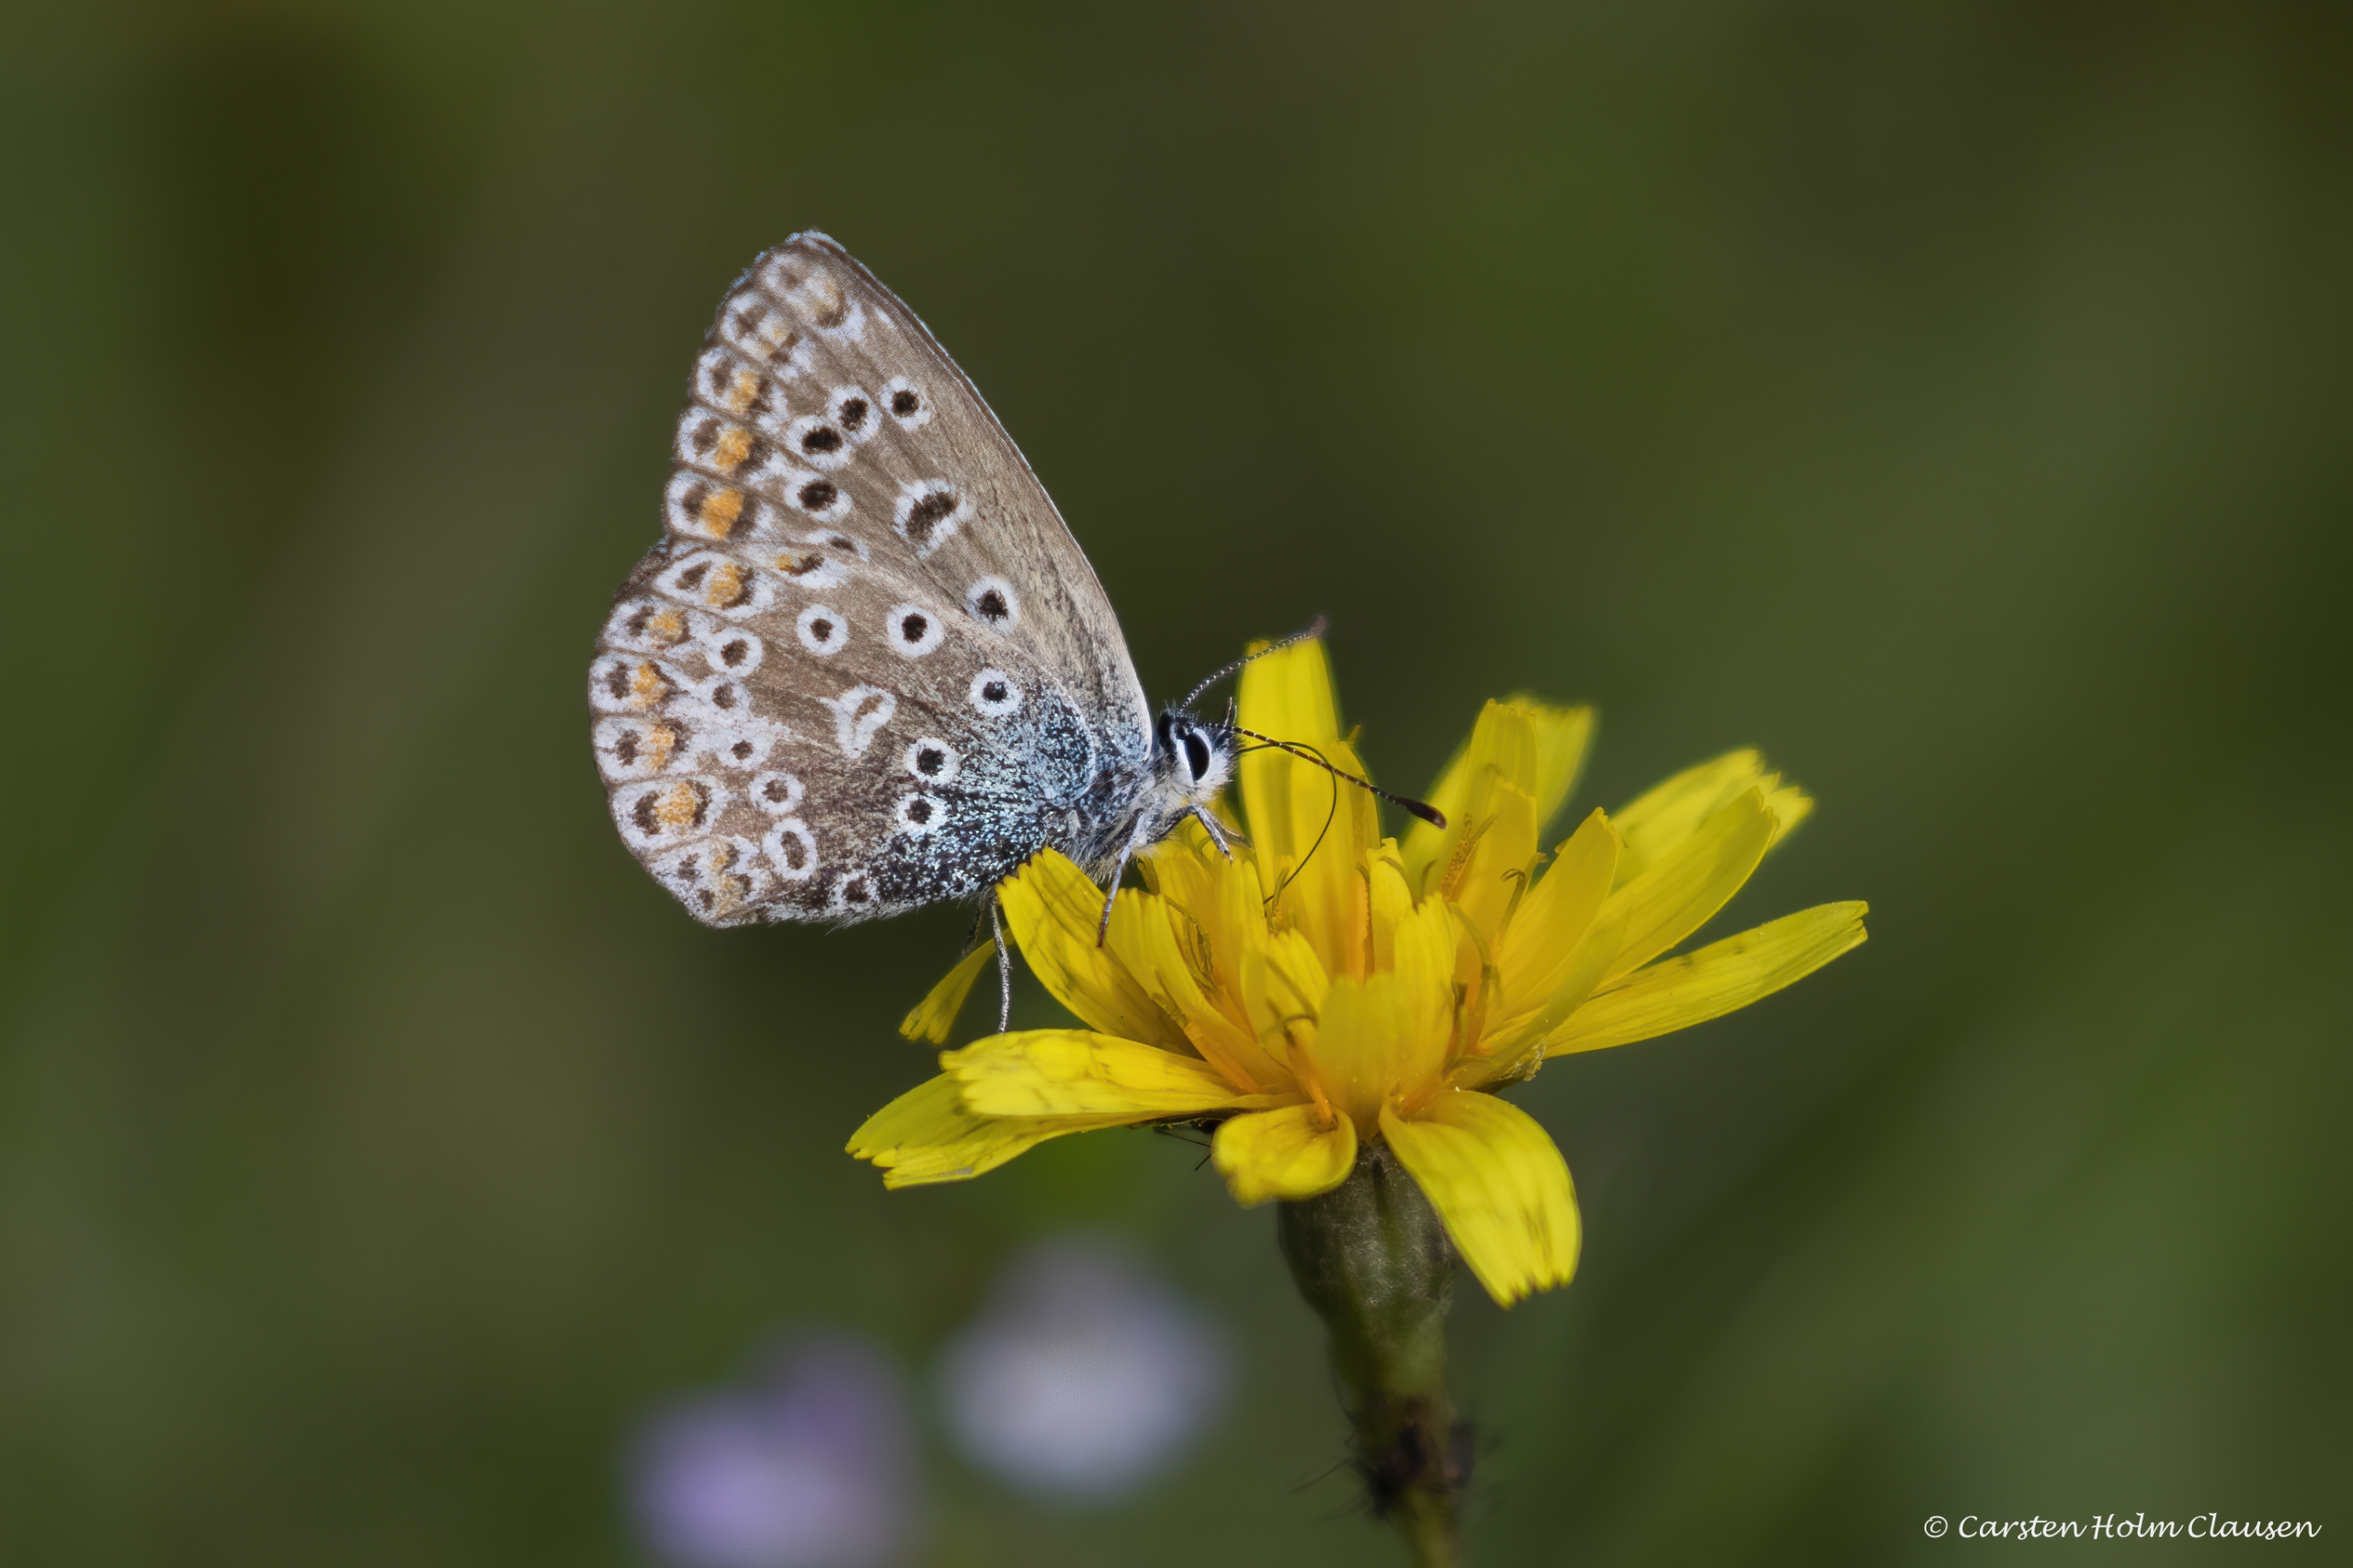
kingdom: Animalia
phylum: Arthropoda
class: Insecta
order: Lepidoptera
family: Lycaenidae
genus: Polyommatus
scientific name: Polyommatus icarus
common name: Almindelig blåfugl
